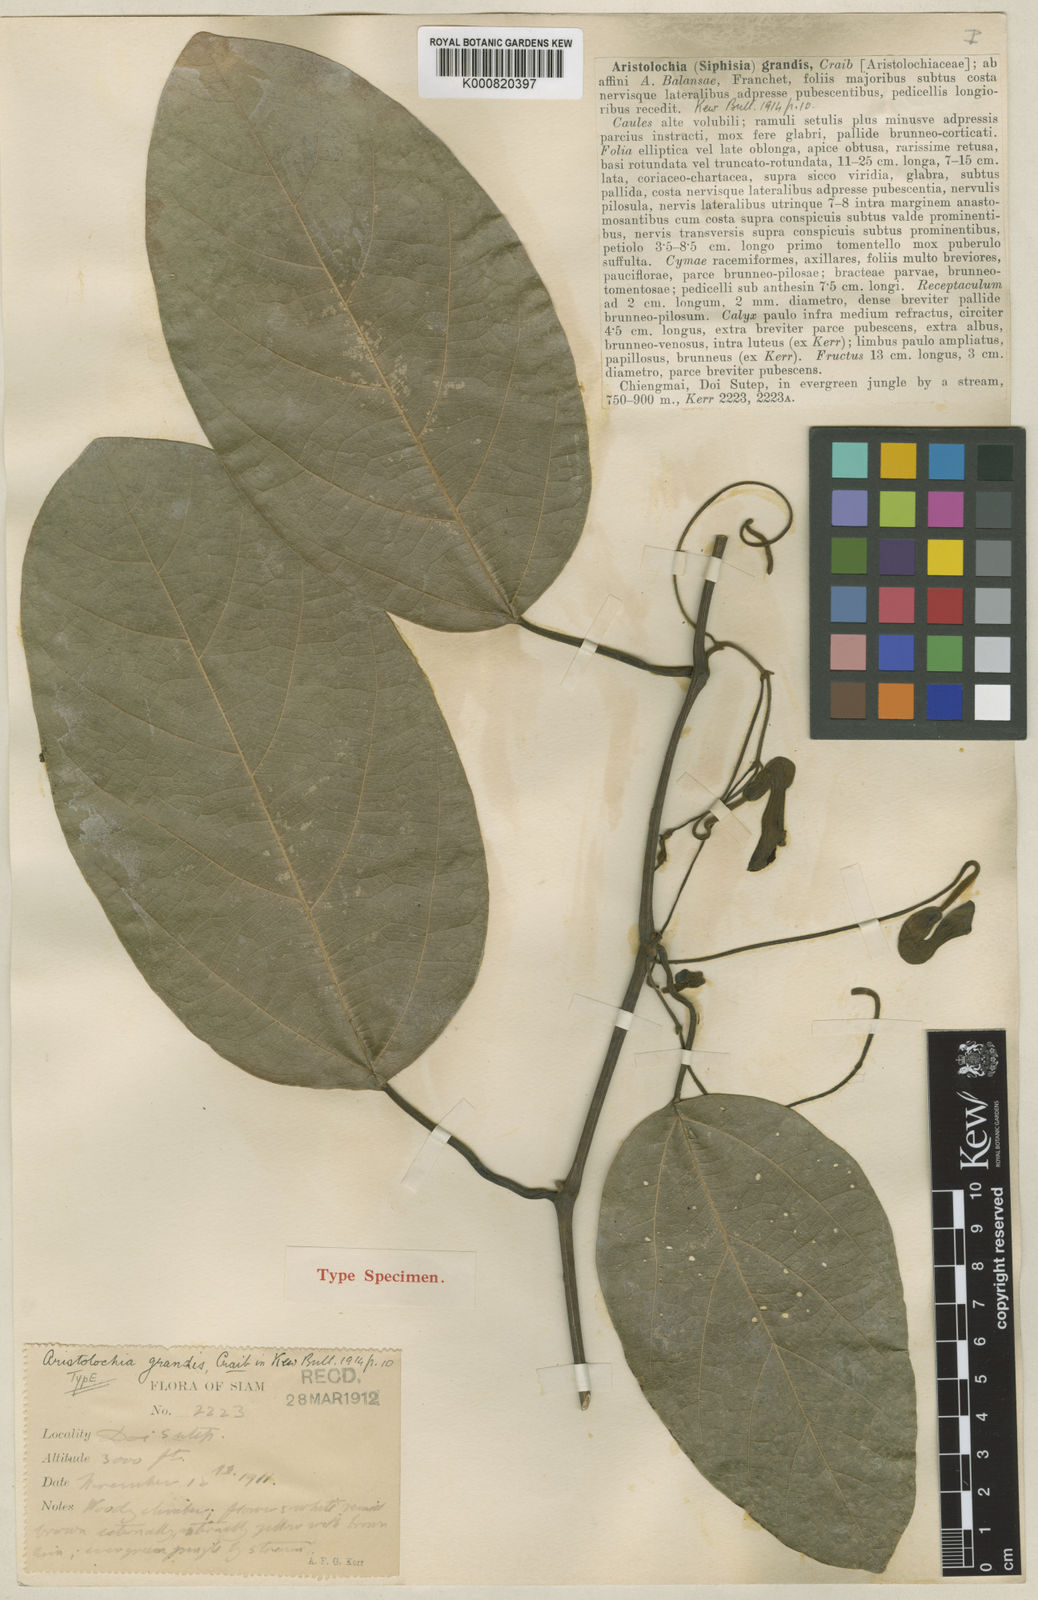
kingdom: Plantae
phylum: Tracheophyta
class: Magnoliopsida
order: Piperales
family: Aristolochiaceae
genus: Isotrema
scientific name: Isotrema
